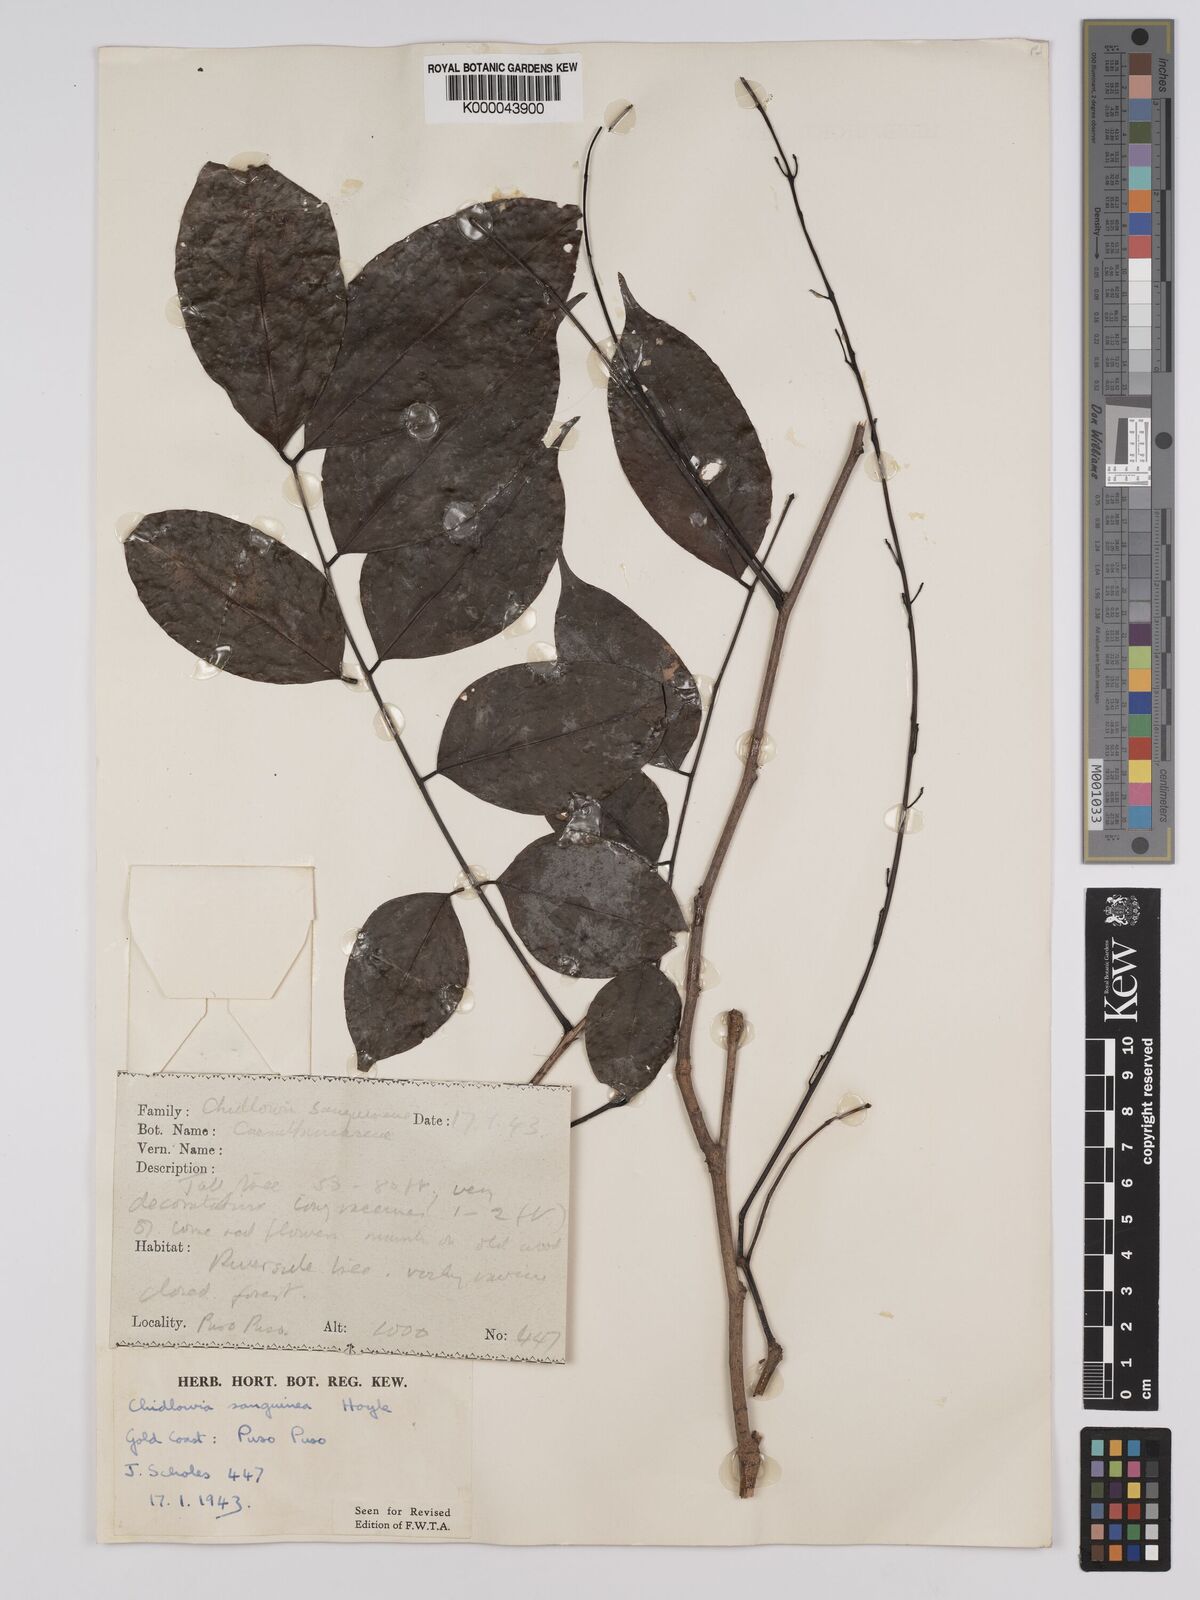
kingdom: Plantae
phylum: Tracheophyta
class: Magnoliopsida
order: Fabales
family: Fabaceae
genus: Chidlowia
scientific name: Chidlowia sanguinea
